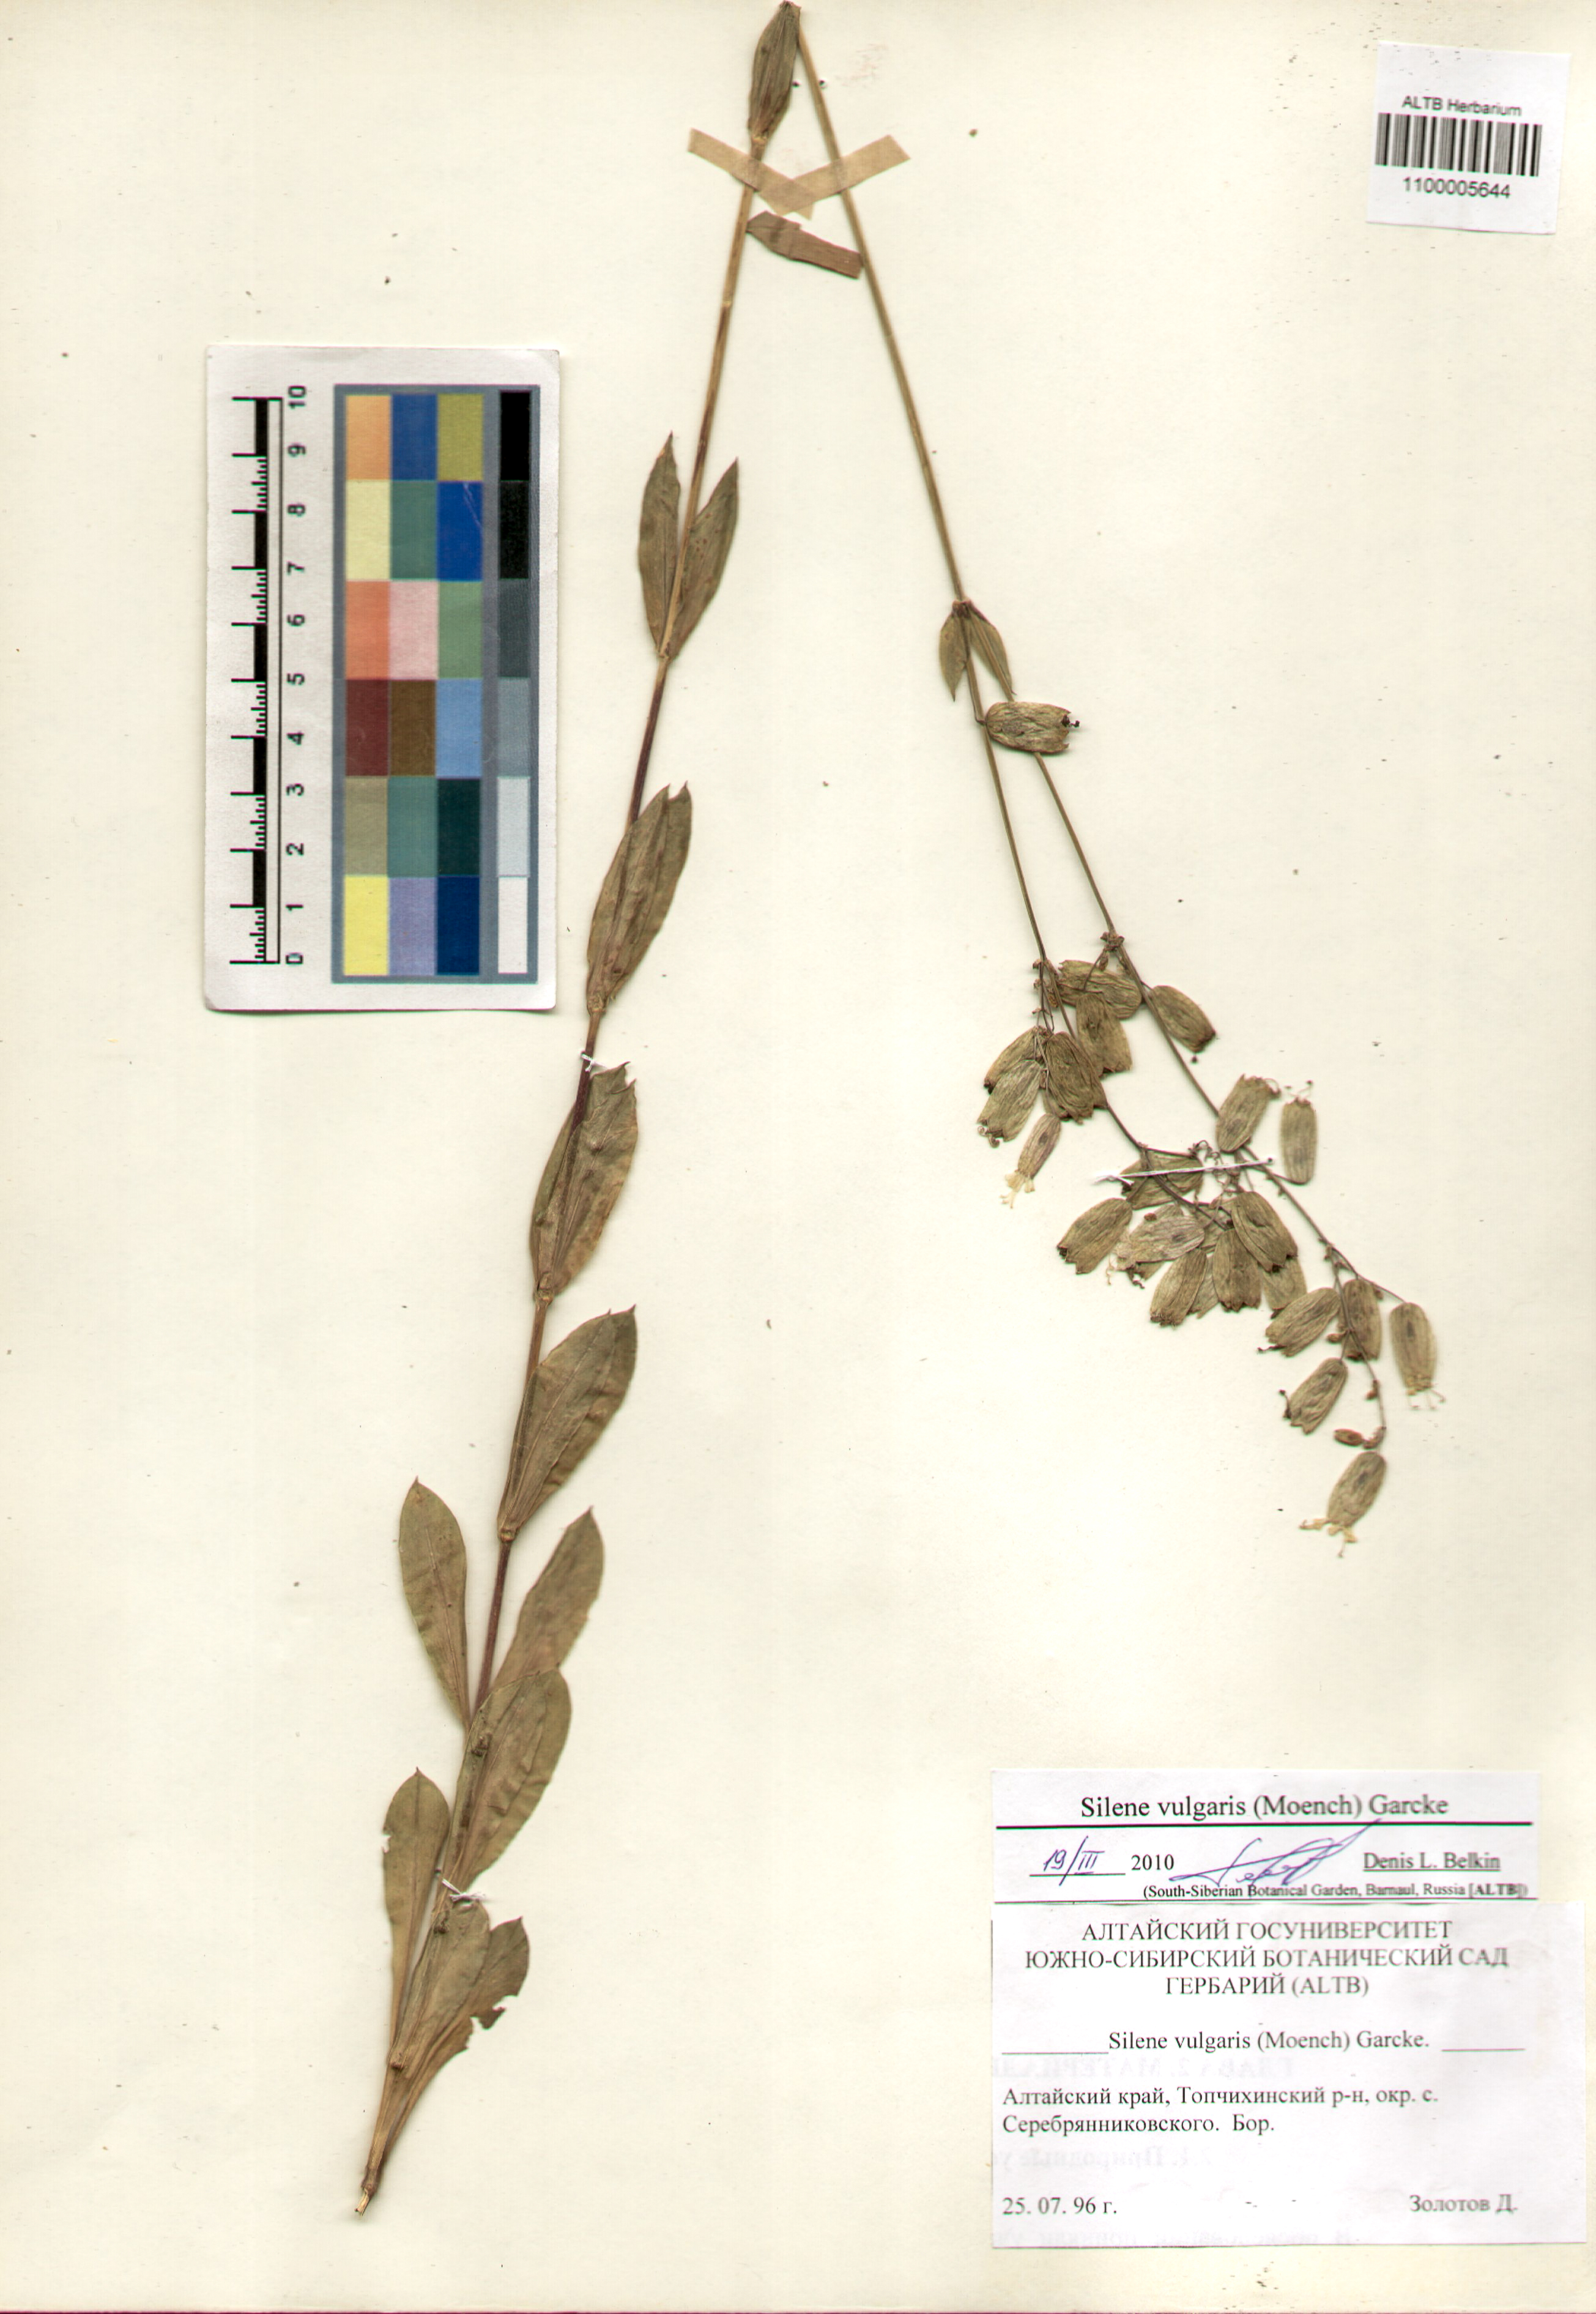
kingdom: Plantae
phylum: Tracheophyta
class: Magnoliopsida
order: Caryophyllales
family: Caryophyllaceae
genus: Silene
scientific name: Silene vulgaris
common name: Bladder campion
